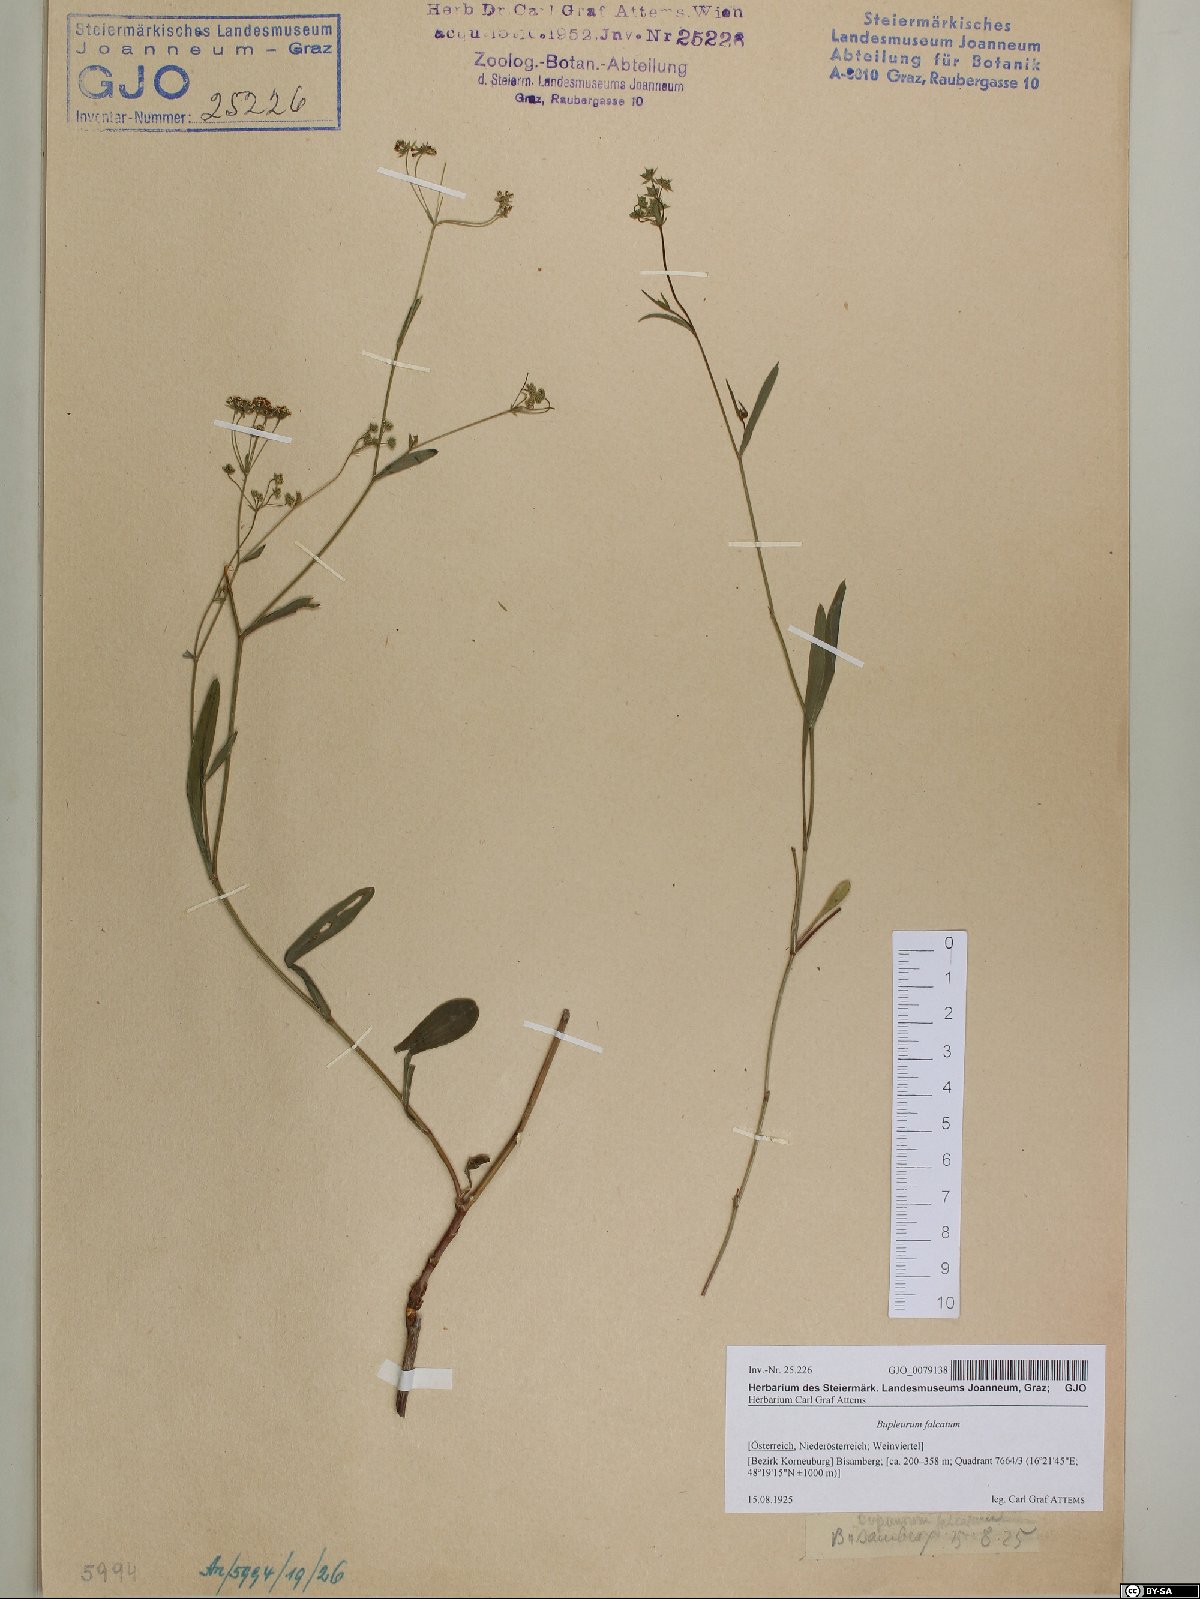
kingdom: Plantae
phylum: Tracheophyta
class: Magnoliopsida
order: Apiales
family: Apiaceae
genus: Bupleurum
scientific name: Bupleurum falcatum
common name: Sickle-leaved hare's-ear
